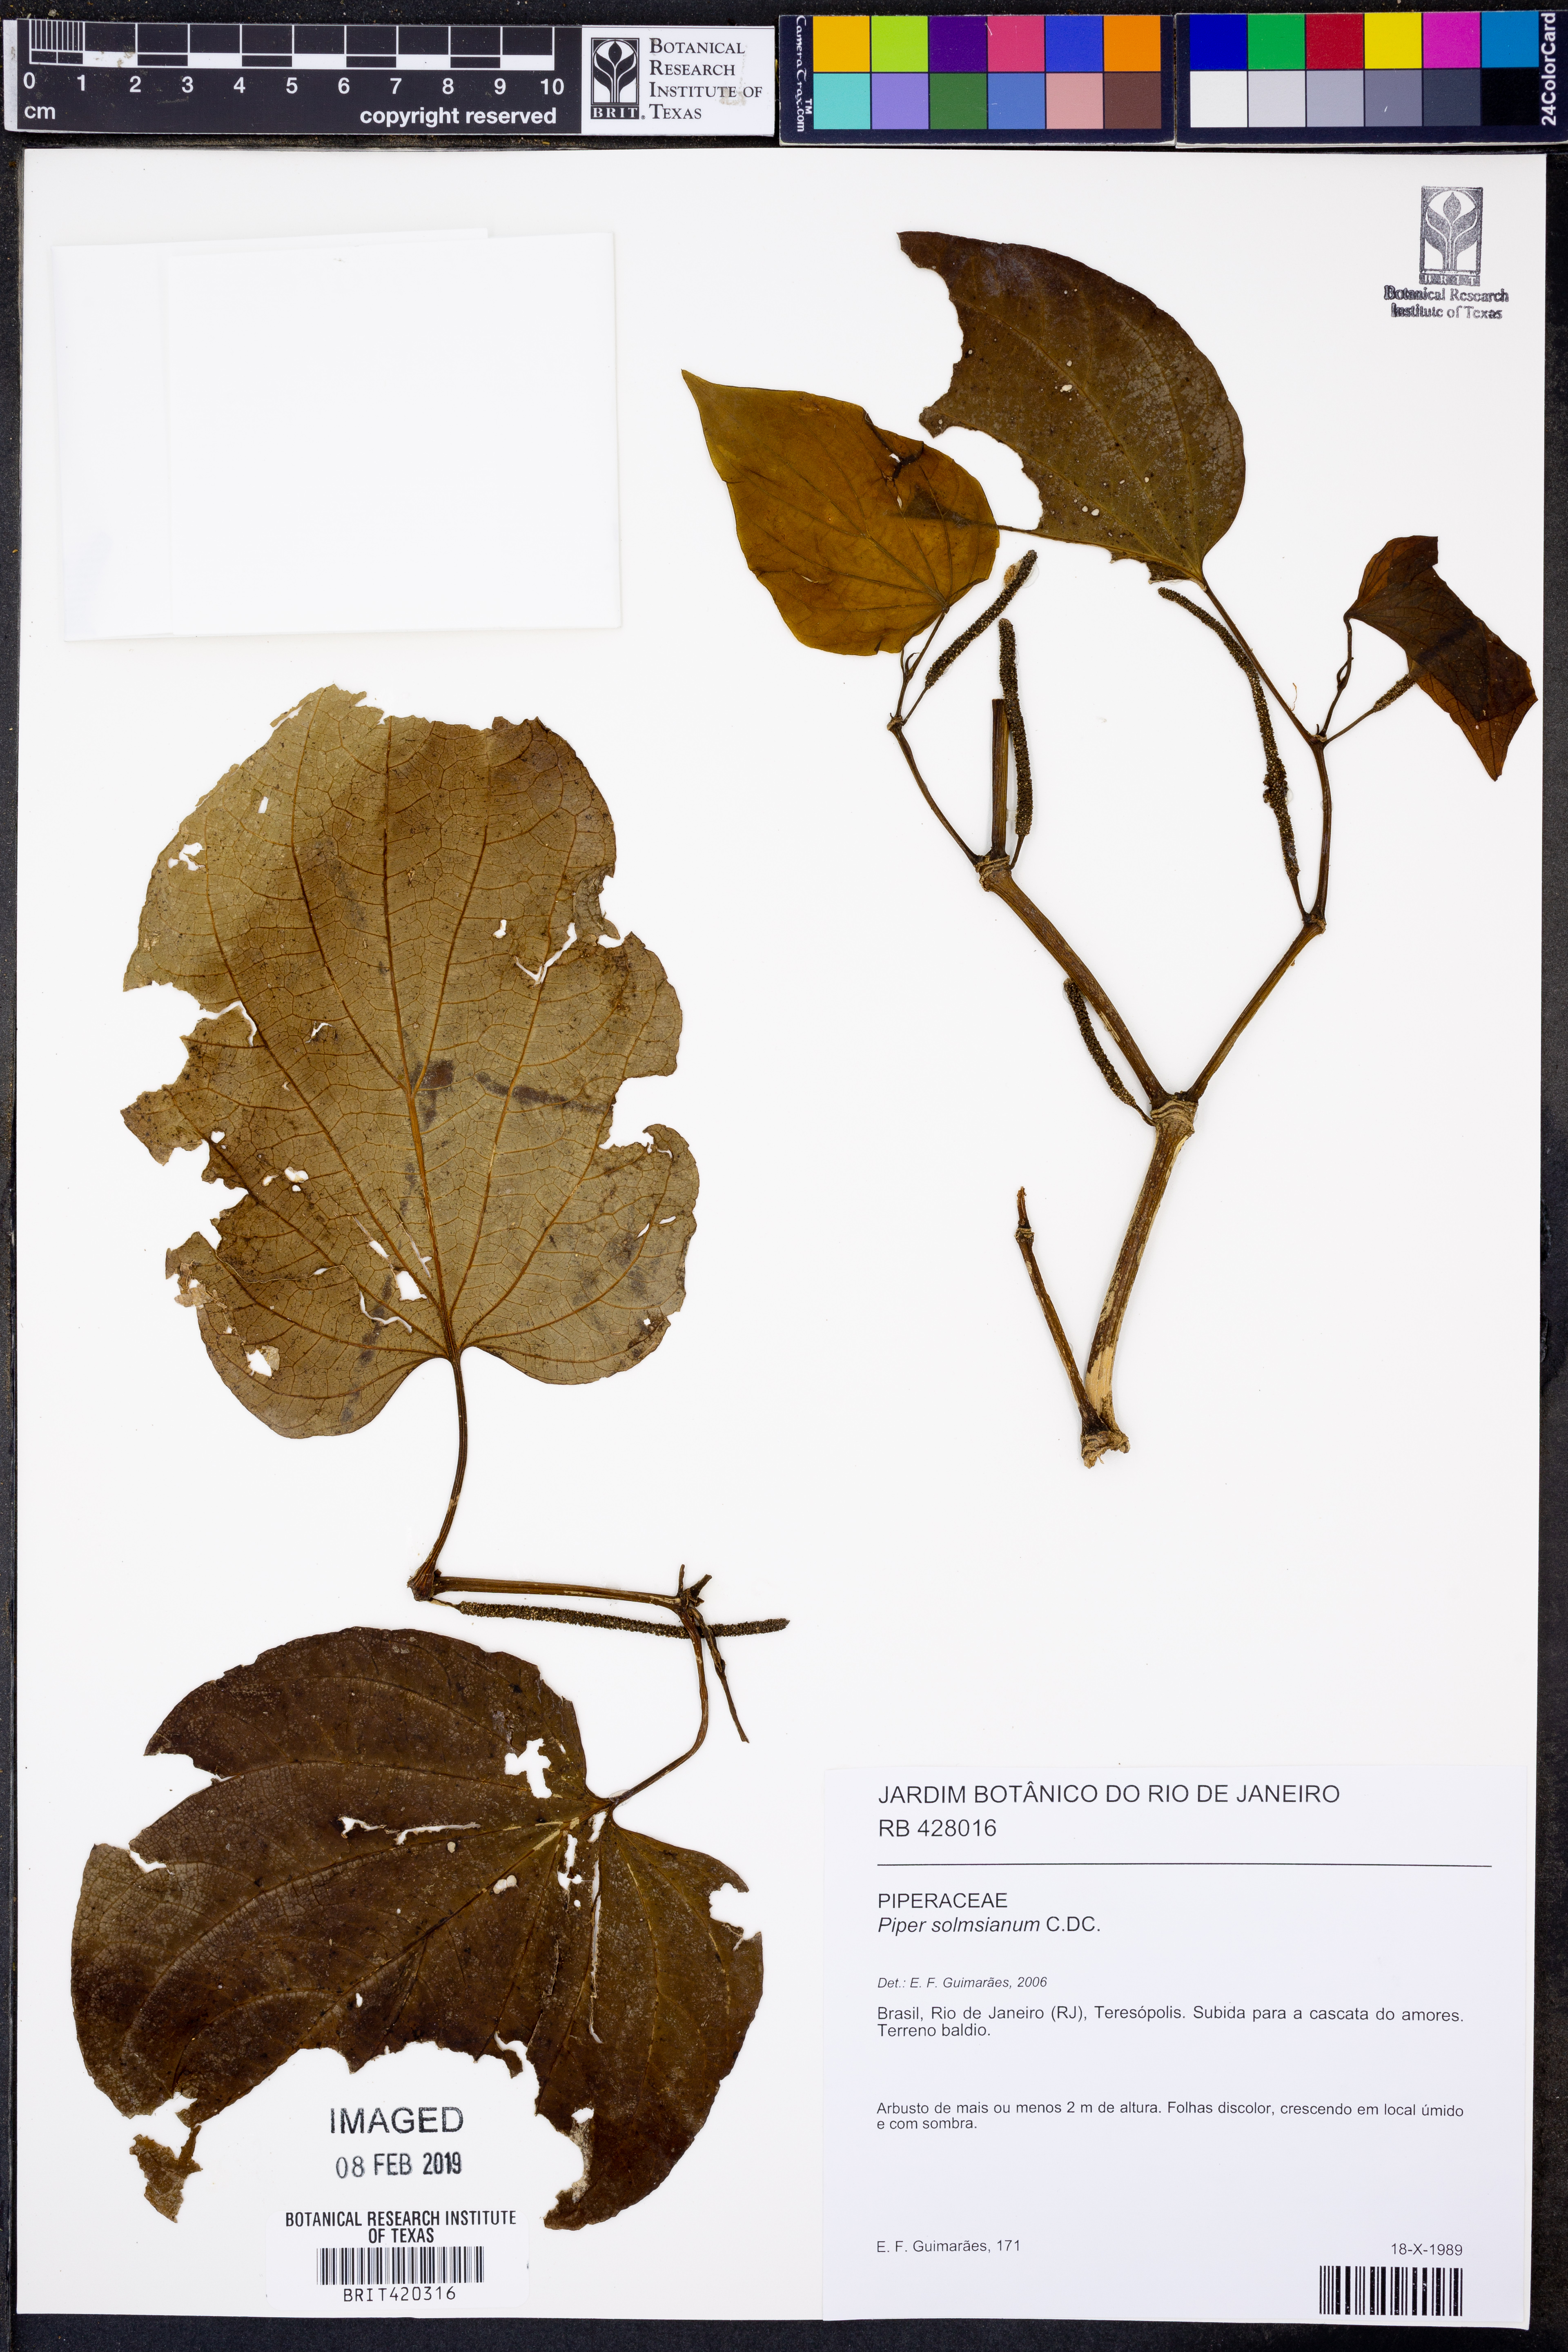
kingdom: Plantae
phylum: Tracheophyta
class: Magnoliopsida
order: Piperales
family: Piperaceae
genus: Piper
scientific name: Piper solmsianum
